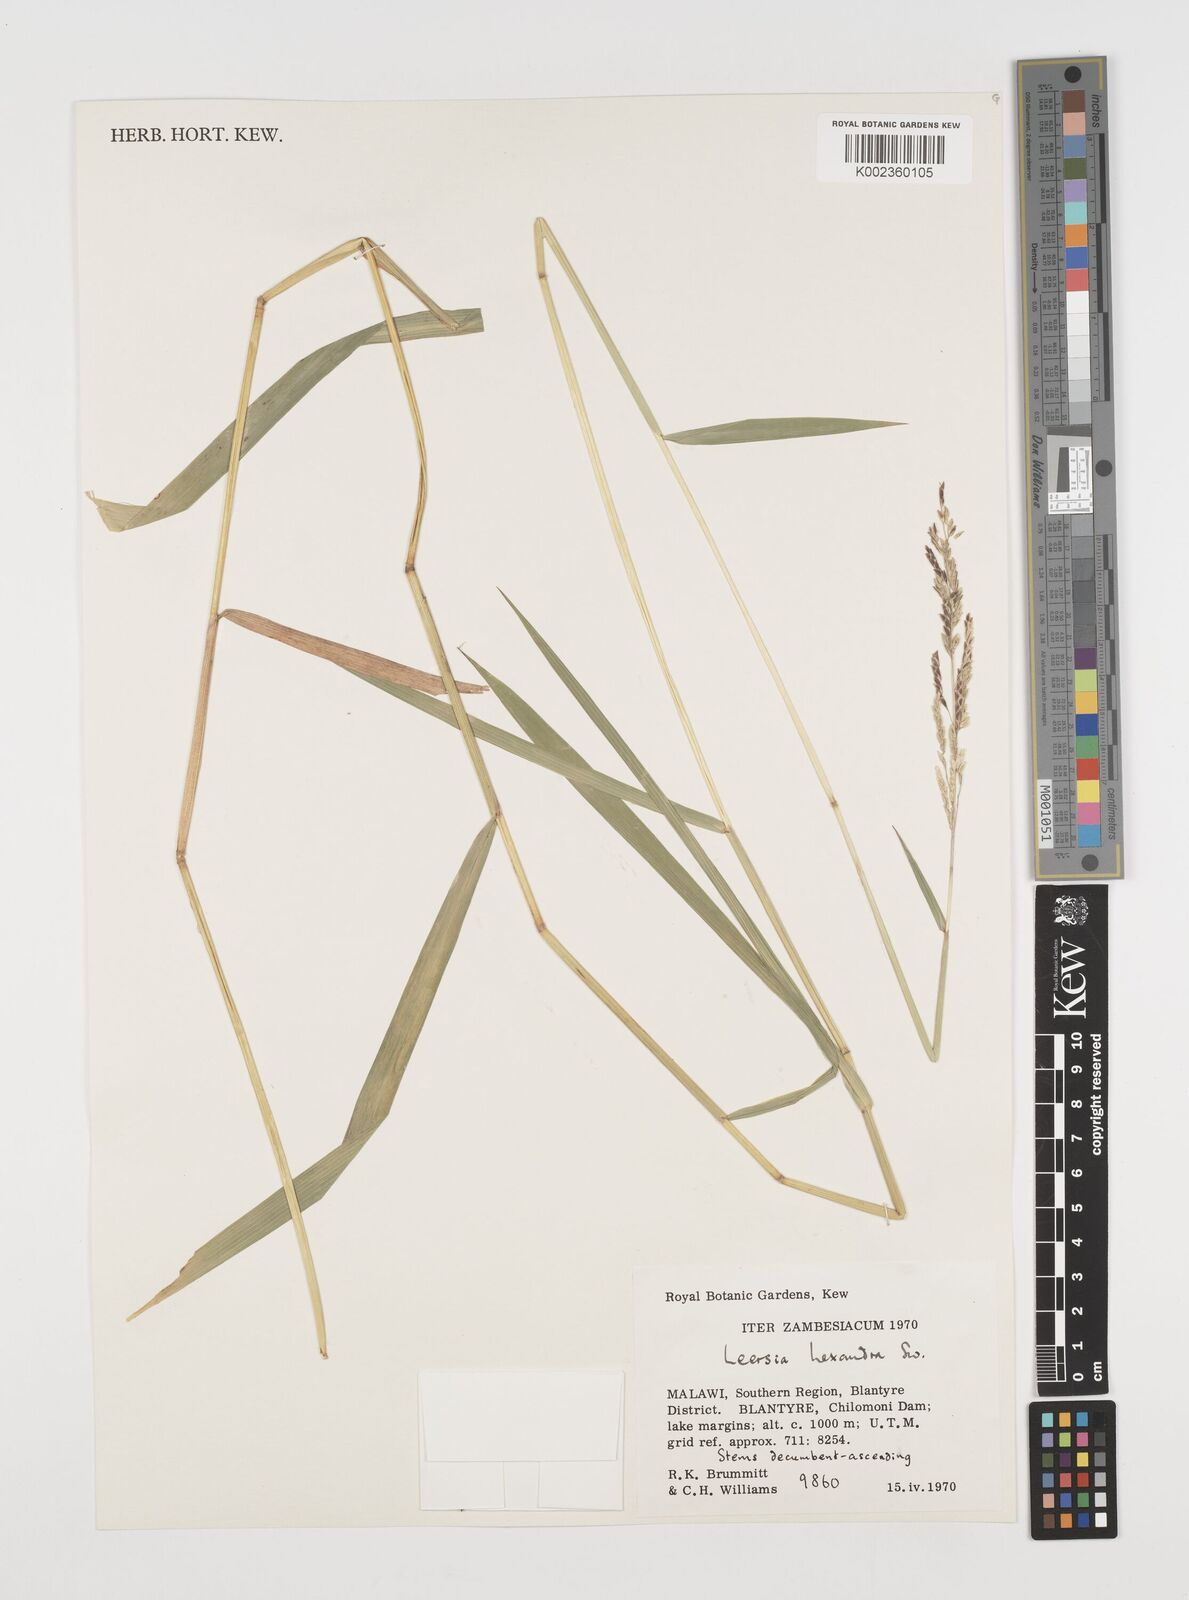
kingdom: Plantae
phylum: Tracheophyta
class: Liliopsida
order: Poales
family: Poaceae
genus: Leersia
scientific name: Leersia hexandra
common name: Southern cut grass
